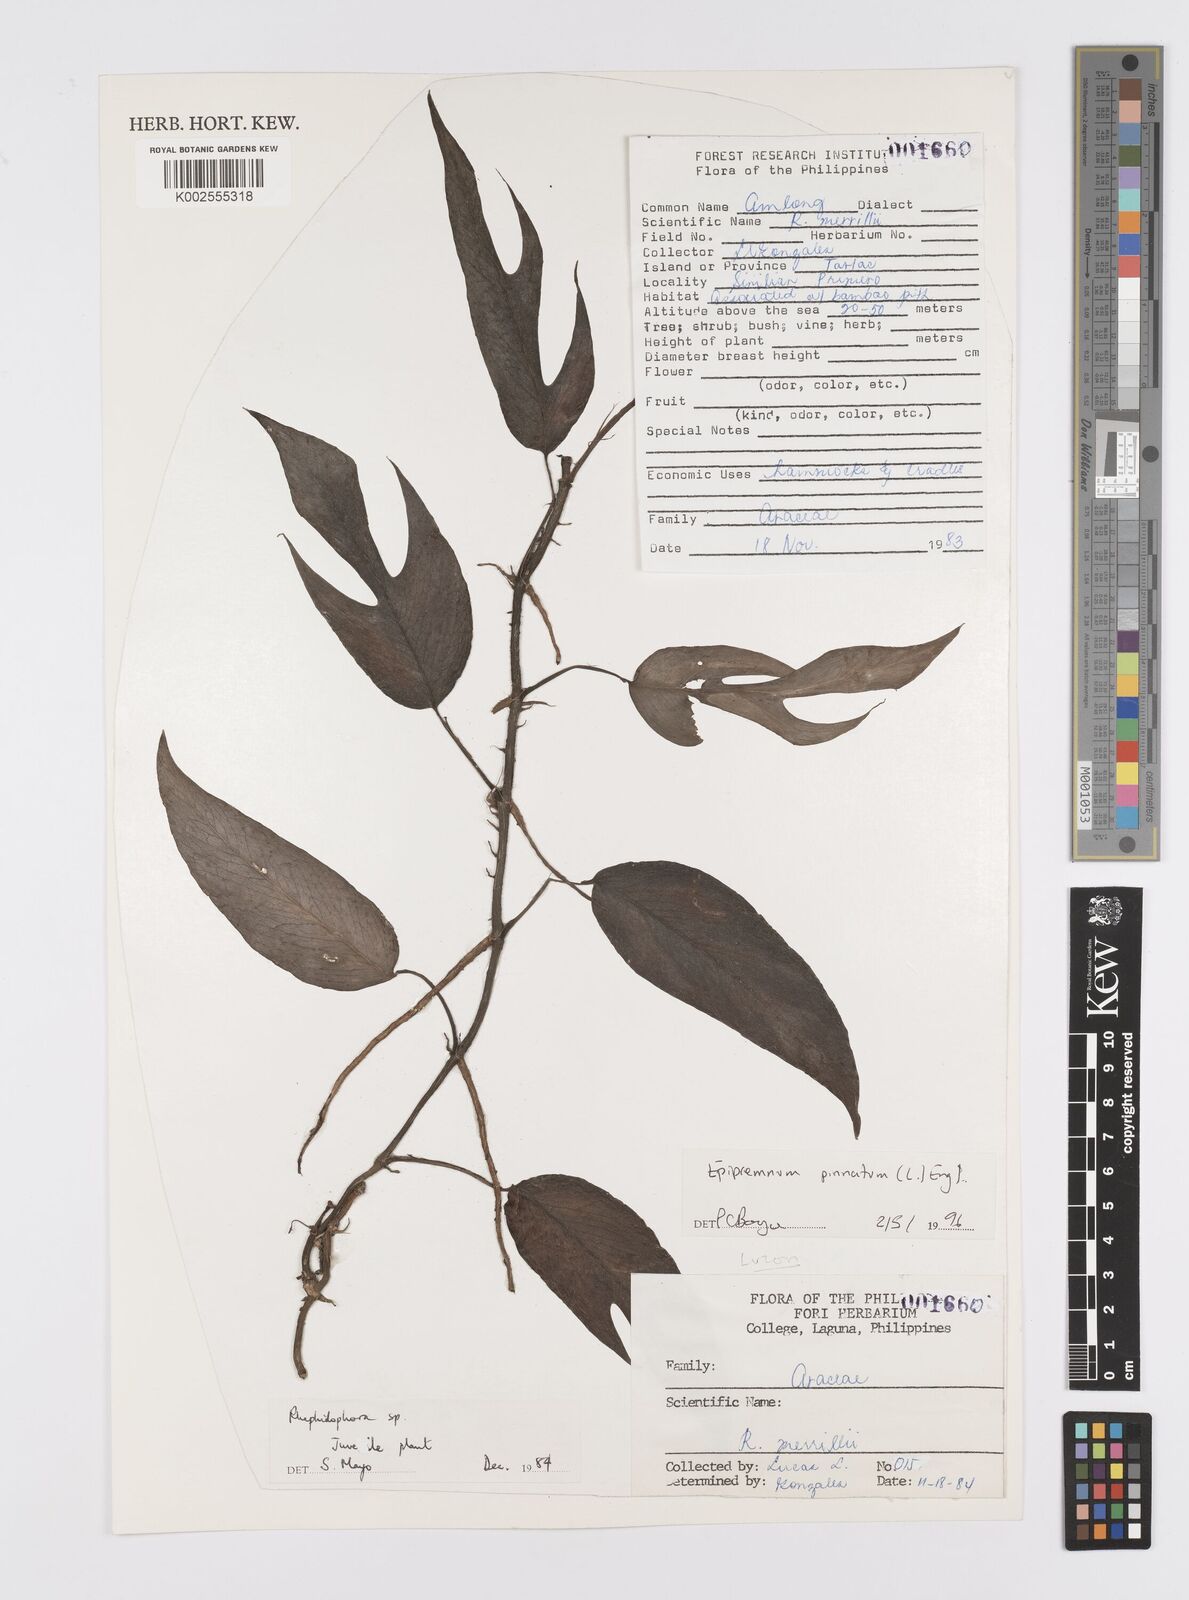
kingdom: Plantae
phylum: Tracheophyta
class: Liliopsida
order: Alismatales
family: Araceae
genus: Epipremnum
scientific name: Epipremnum pinnatum
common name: Centipede tongavine
